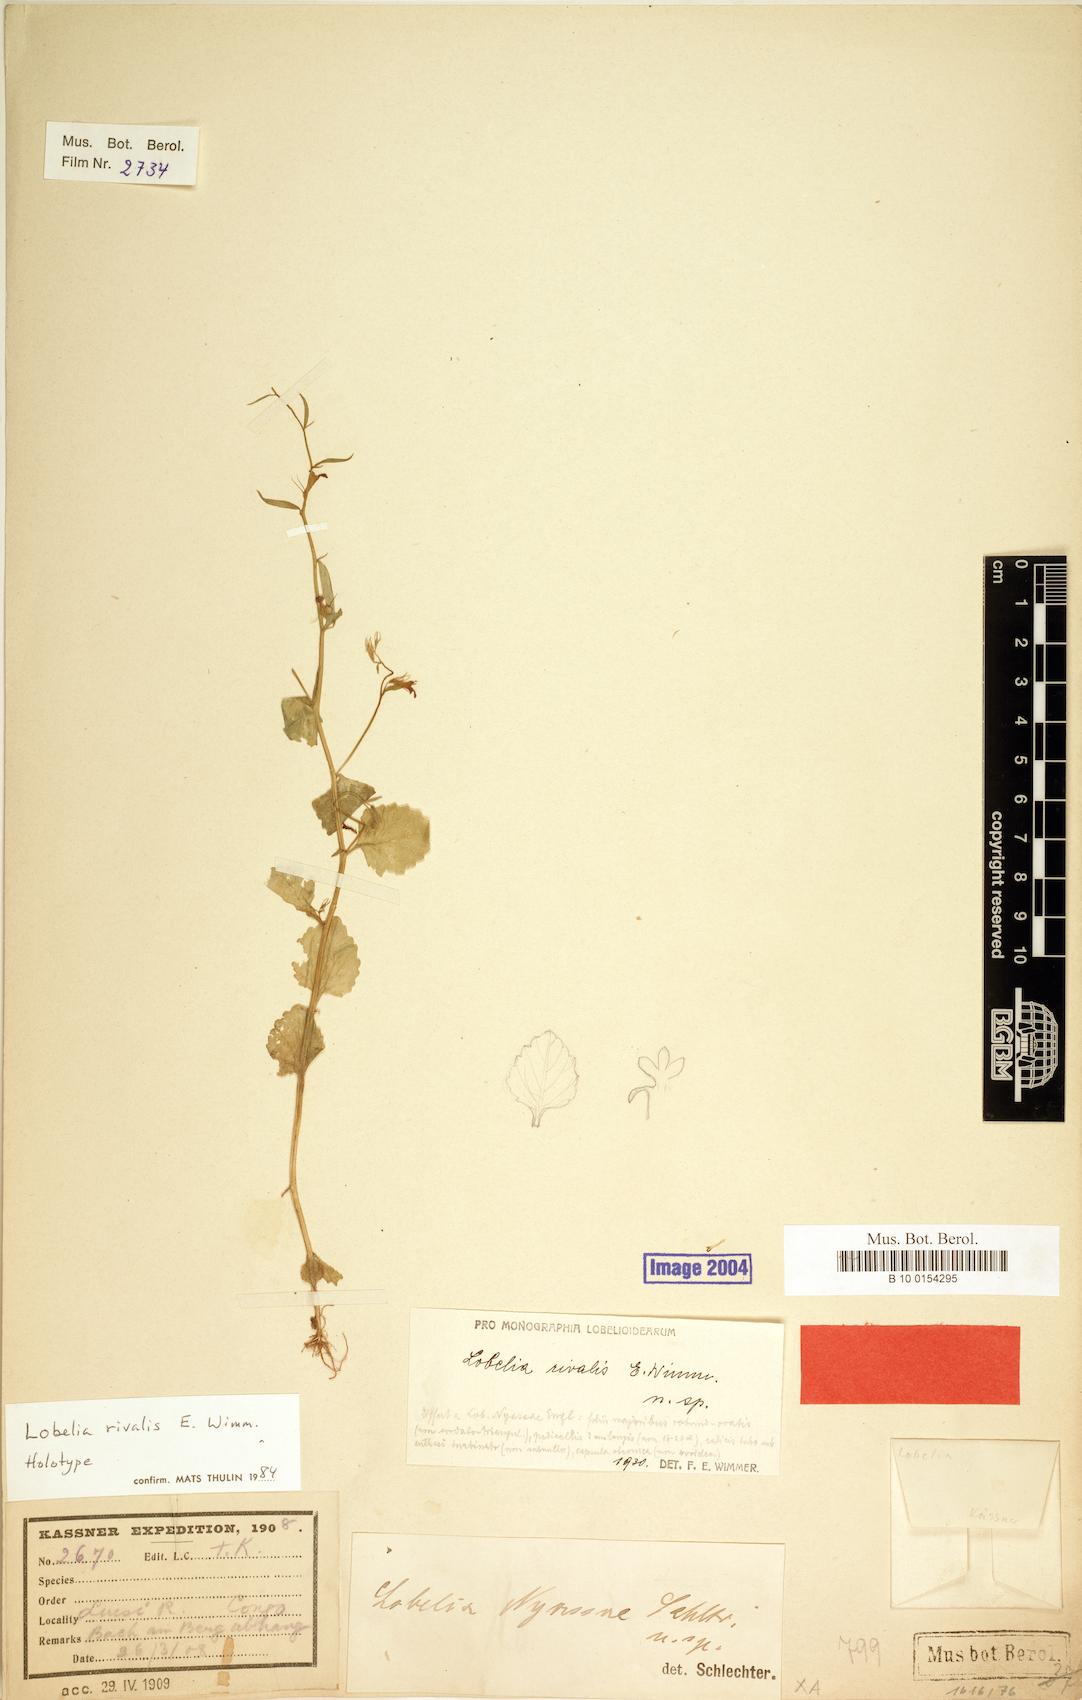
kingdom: Plantae
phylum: Tracheophyta
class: Magnoliopsida
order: Asterales
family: Campanulaceae
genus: Lobelia
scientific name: Lobelia rivalis
